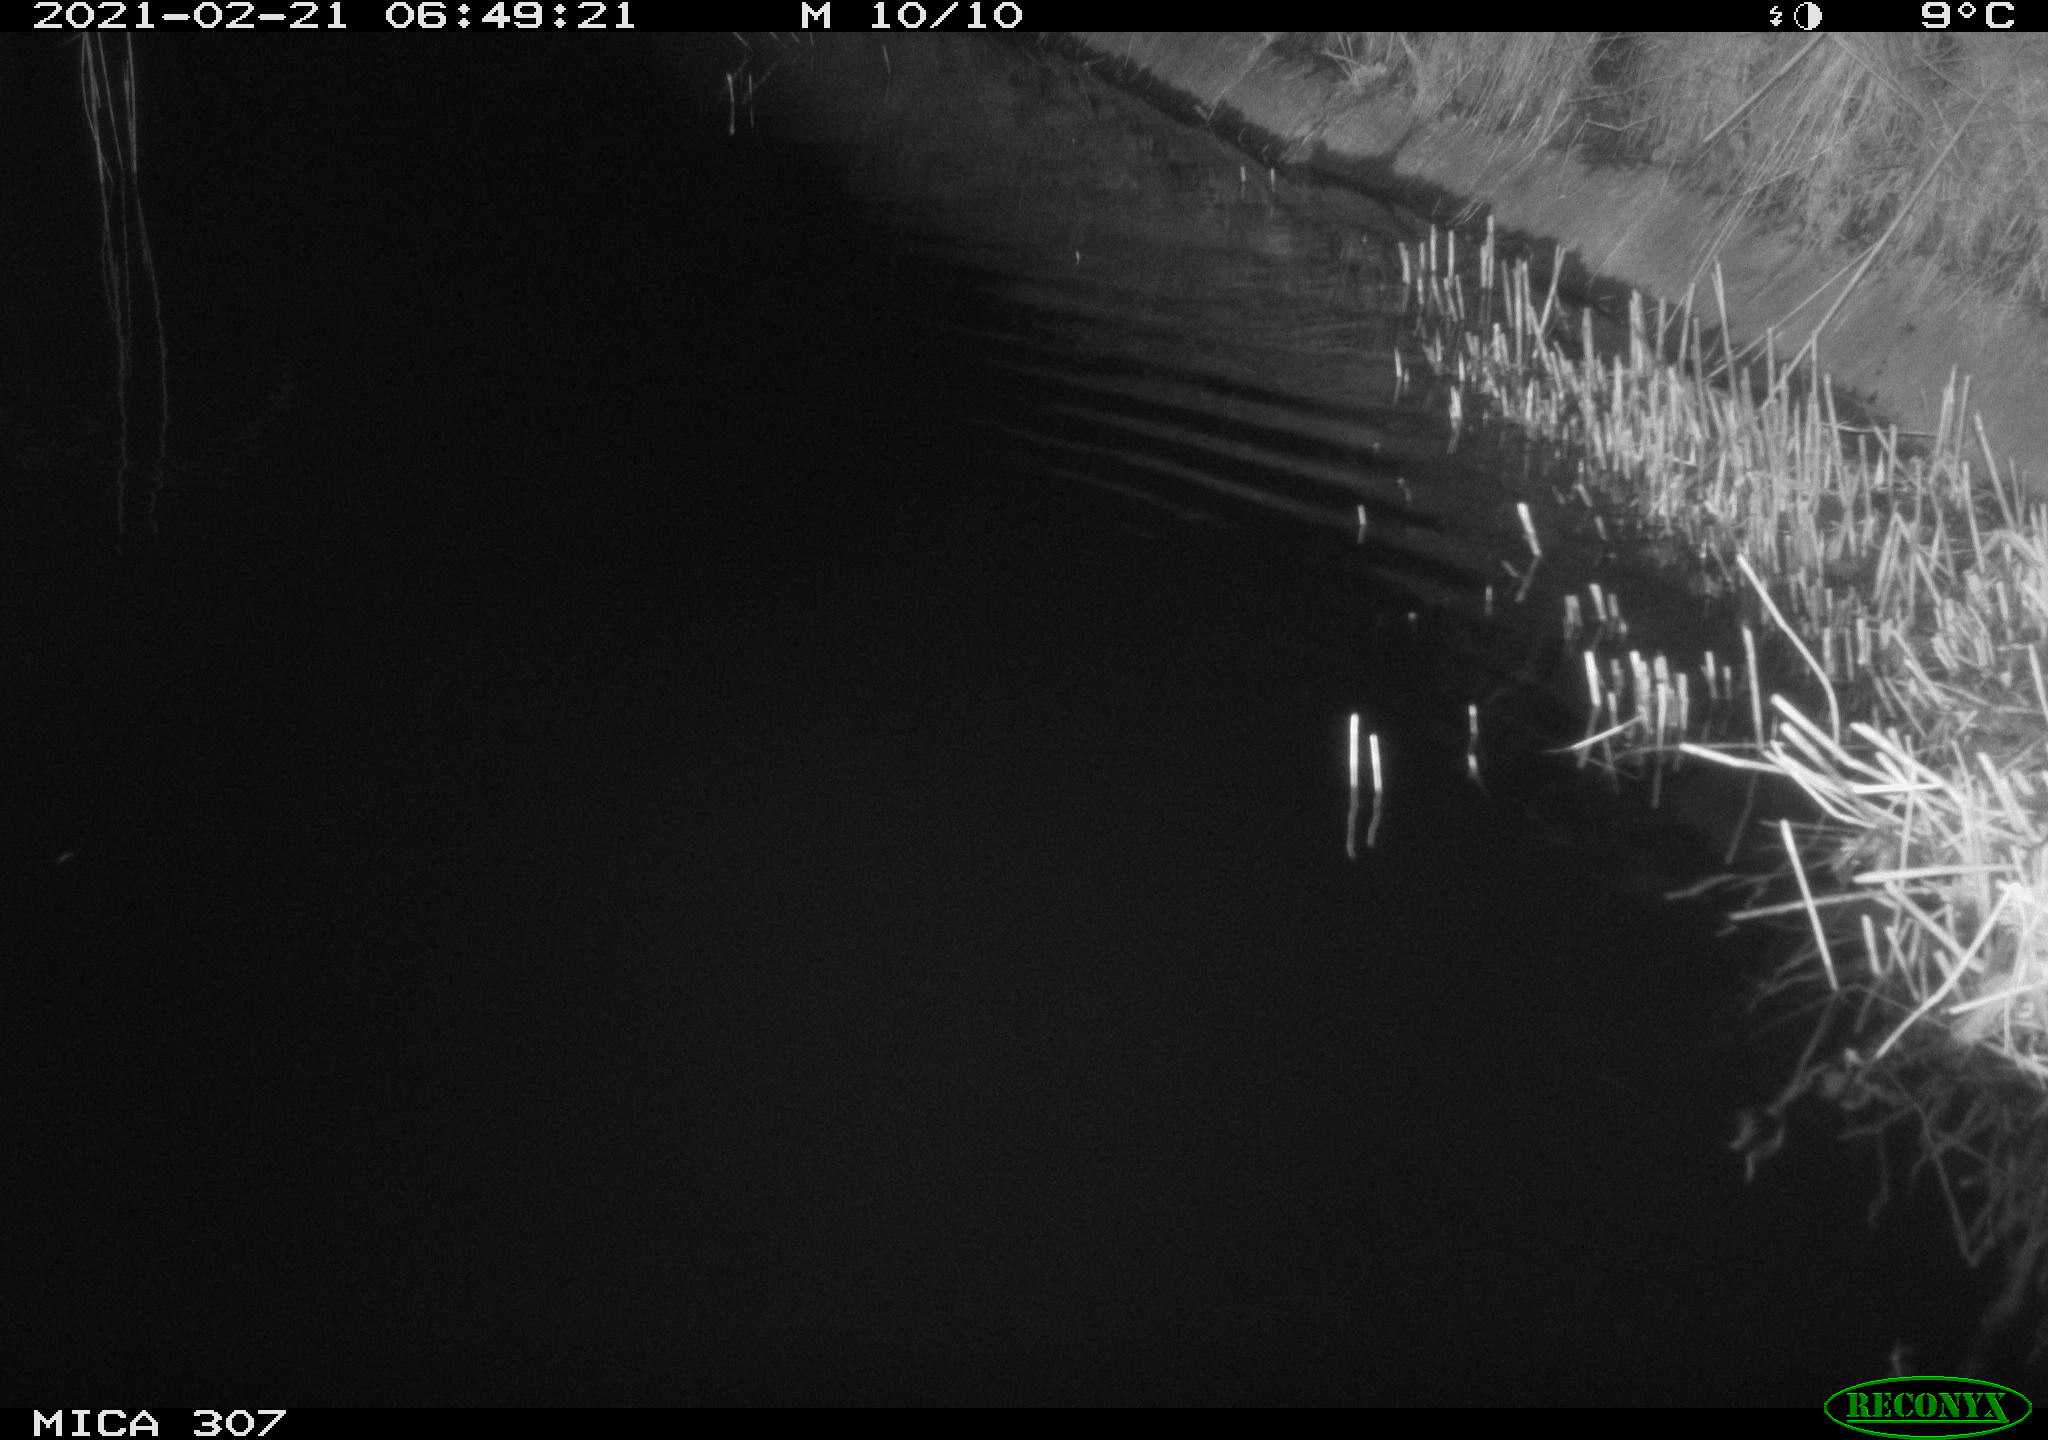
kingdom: Animalia
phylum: Chordata
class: Mammalia
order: Rodentia
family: Cricetidae
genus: Ondatra
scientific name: Ondatra zibethicus
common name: Muskrat
